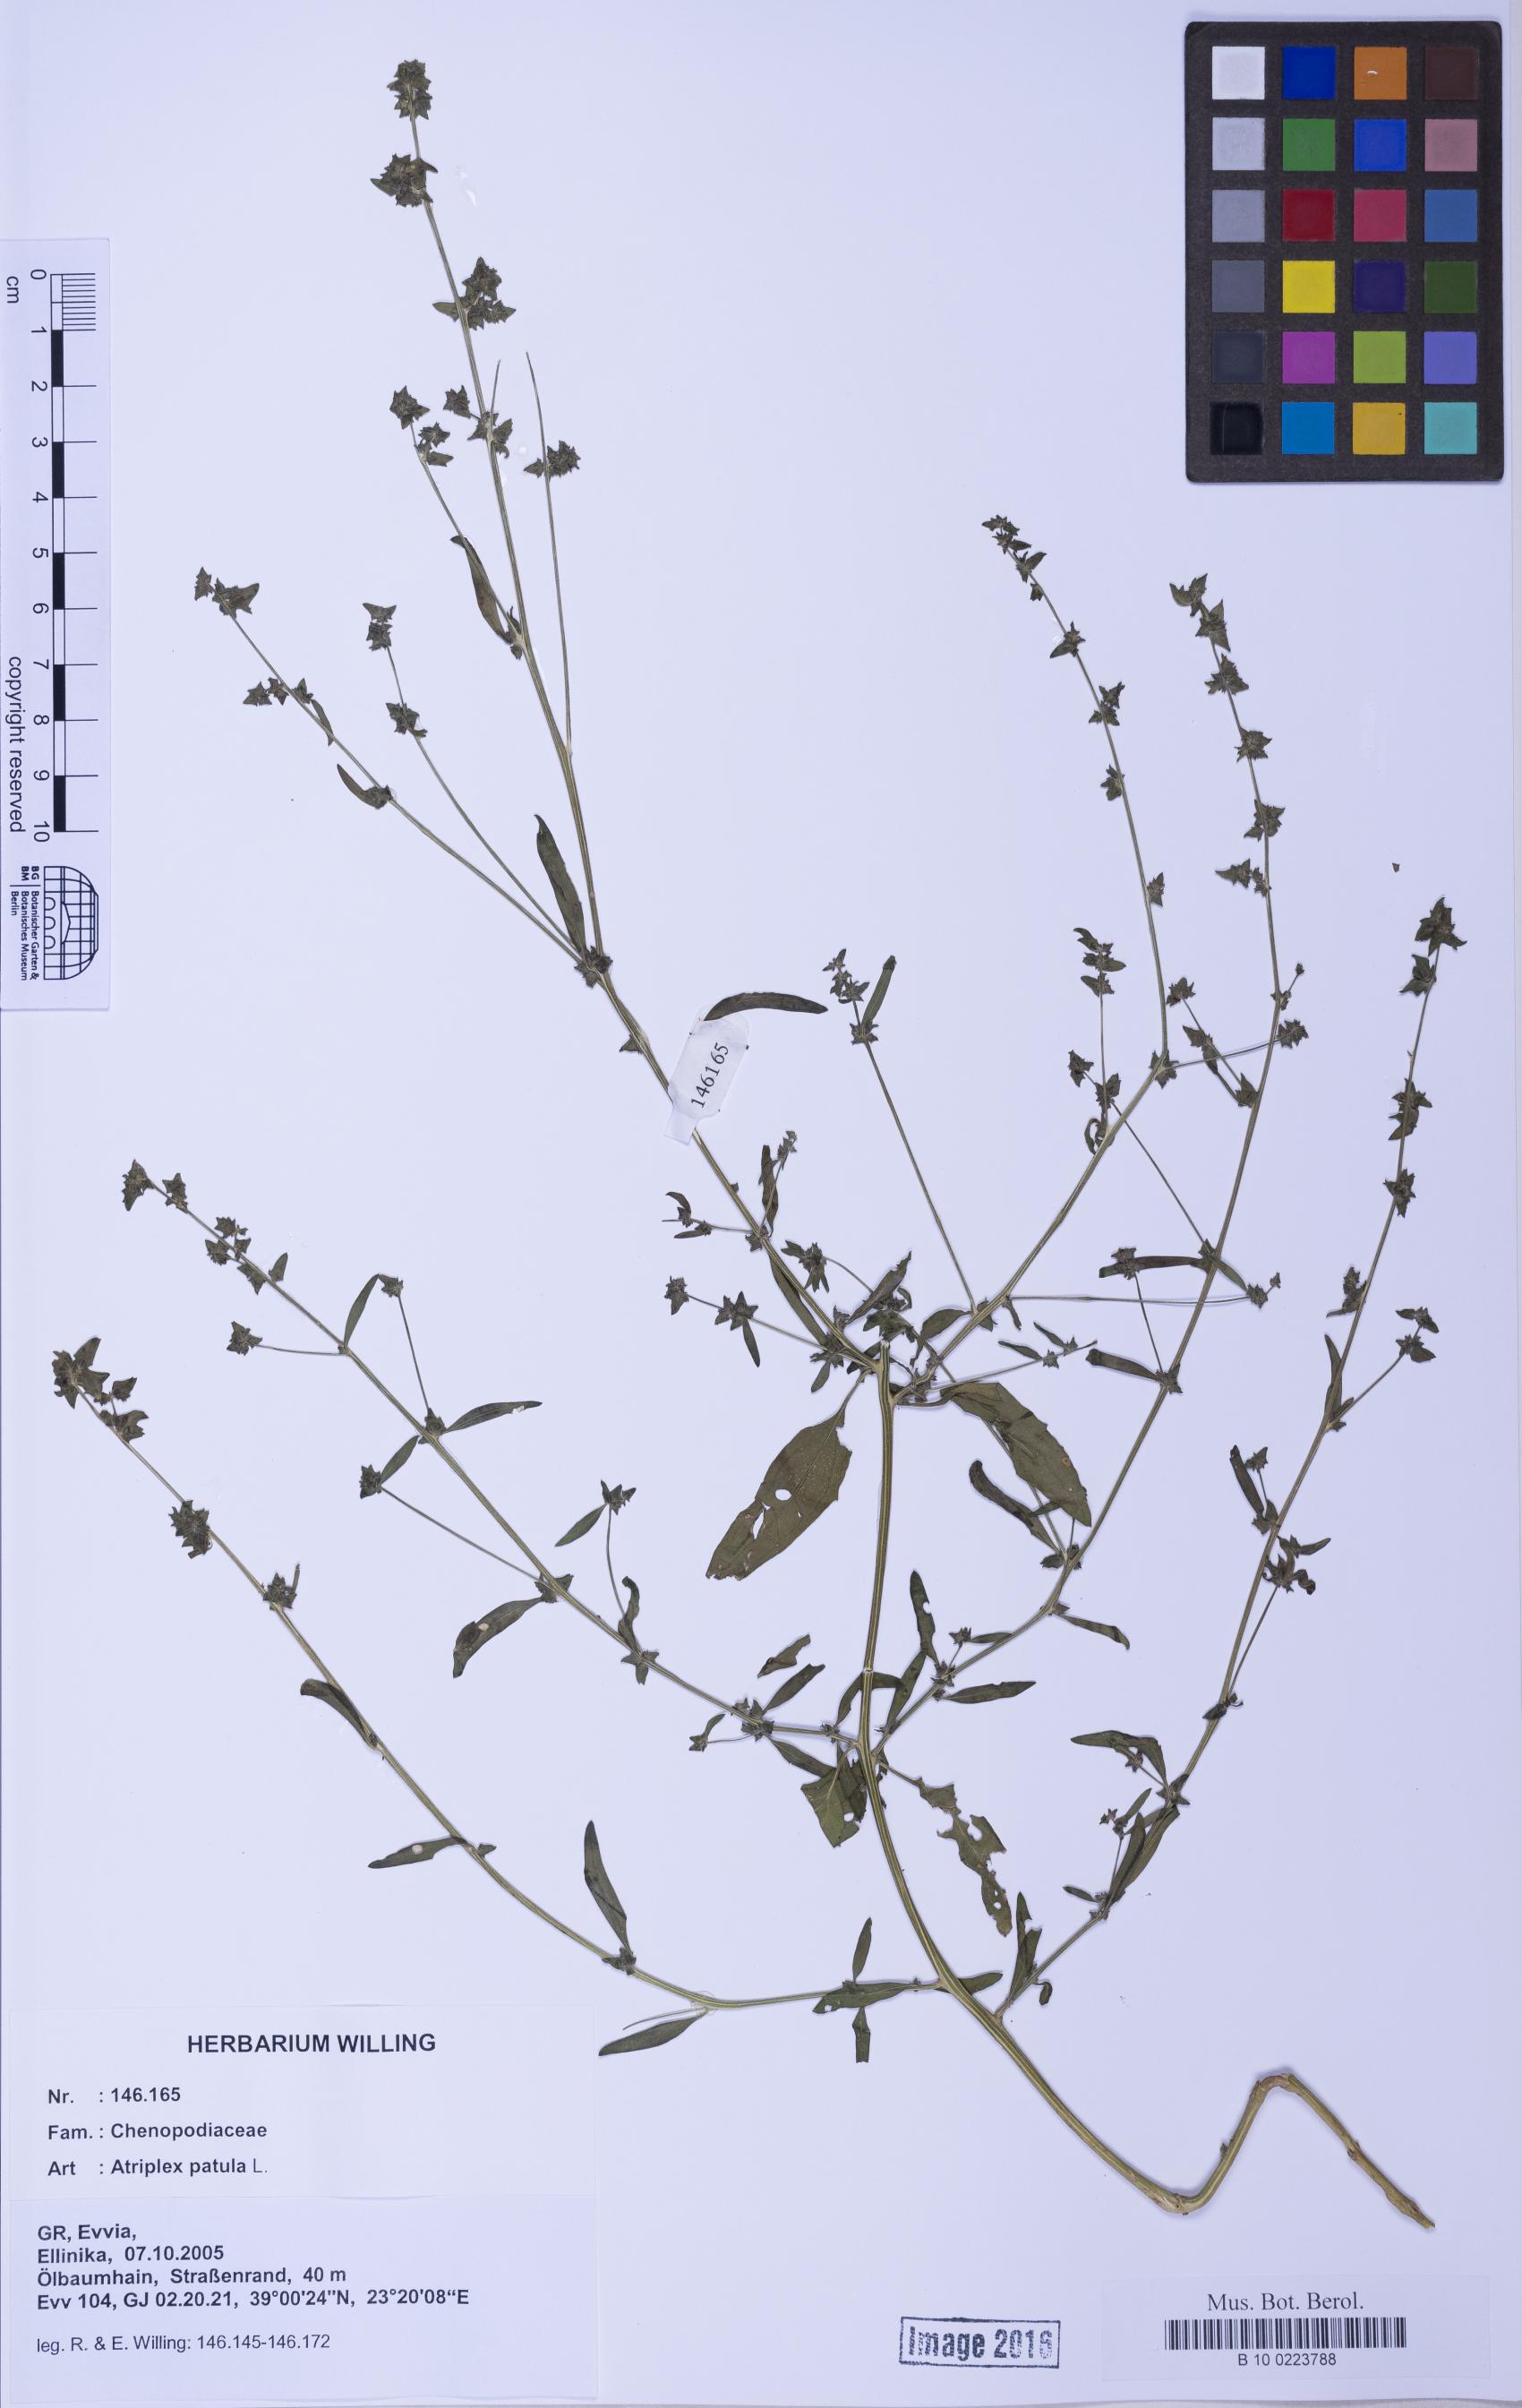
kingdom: Plantae
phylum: Tracheophyta
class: Magnoliopsida
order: Caryophyllales
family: Amaranthaceae
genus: Atriplex
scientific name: Atriplex patula
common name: Common orache
